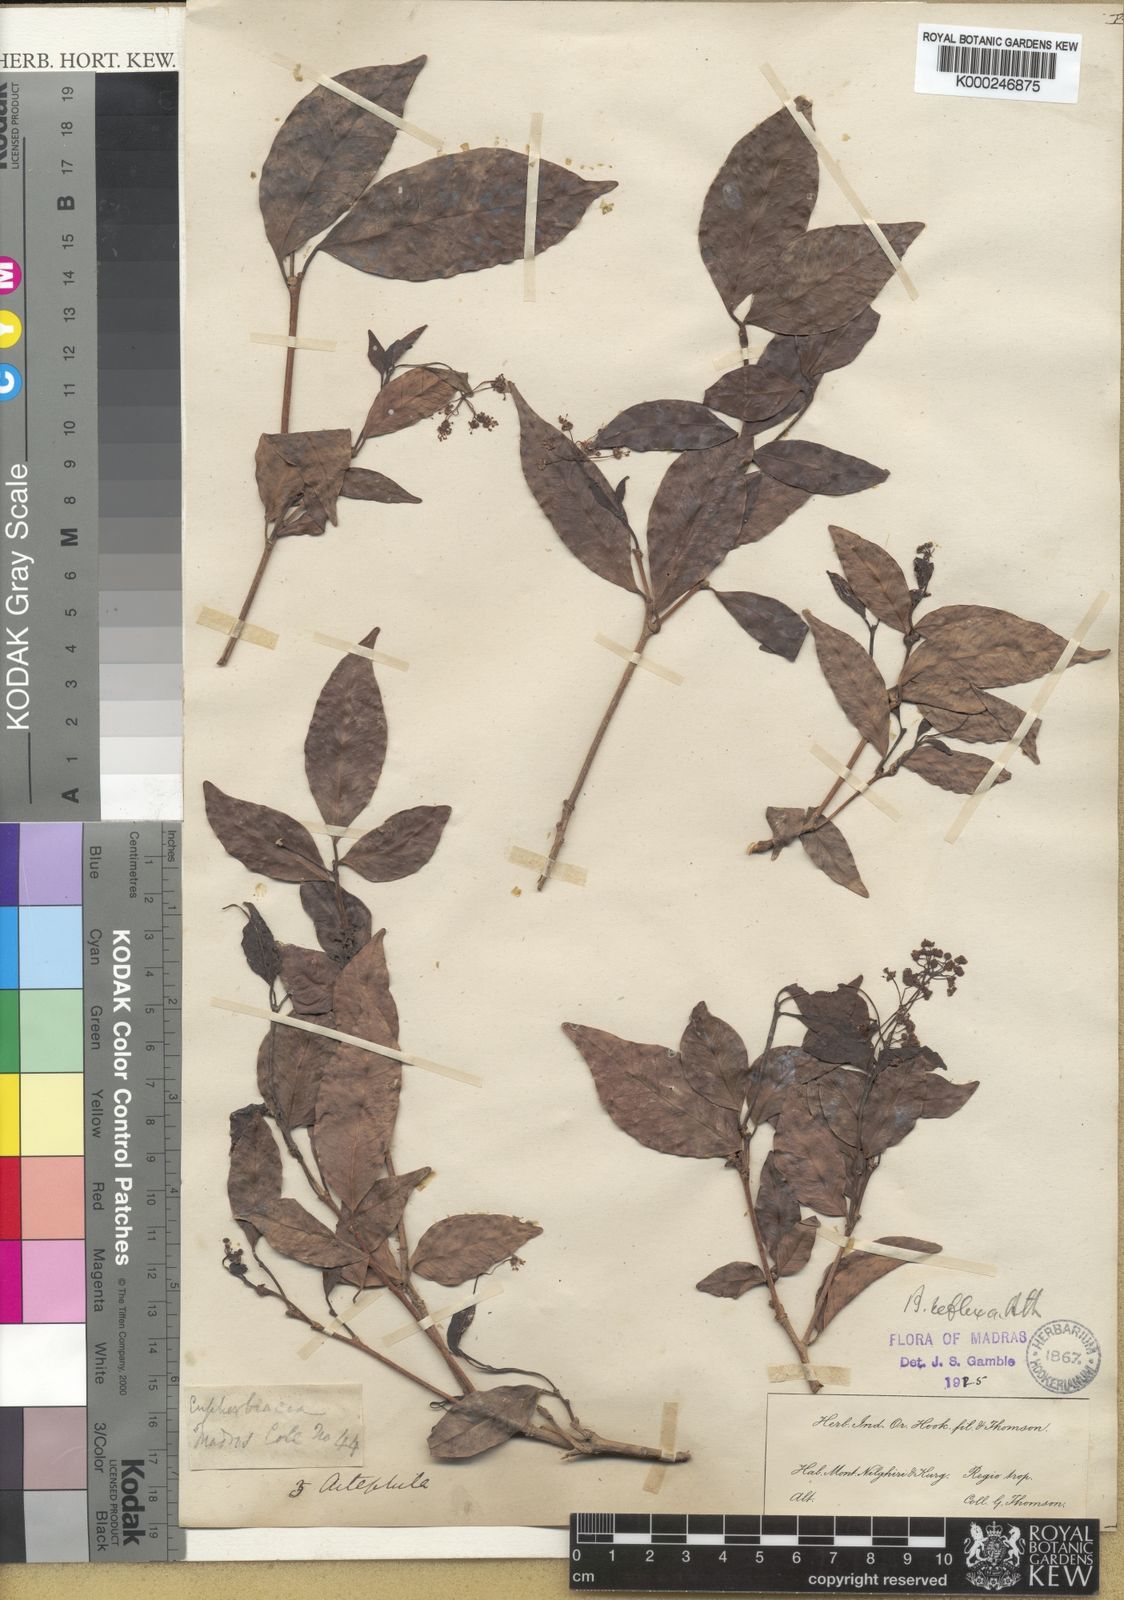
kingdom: Plantae
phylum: Tracheophyta
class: Magnoliopsida
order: Malpighiales
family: Euphorbiaceae
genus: Blachia
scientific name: Blachia umbellata
